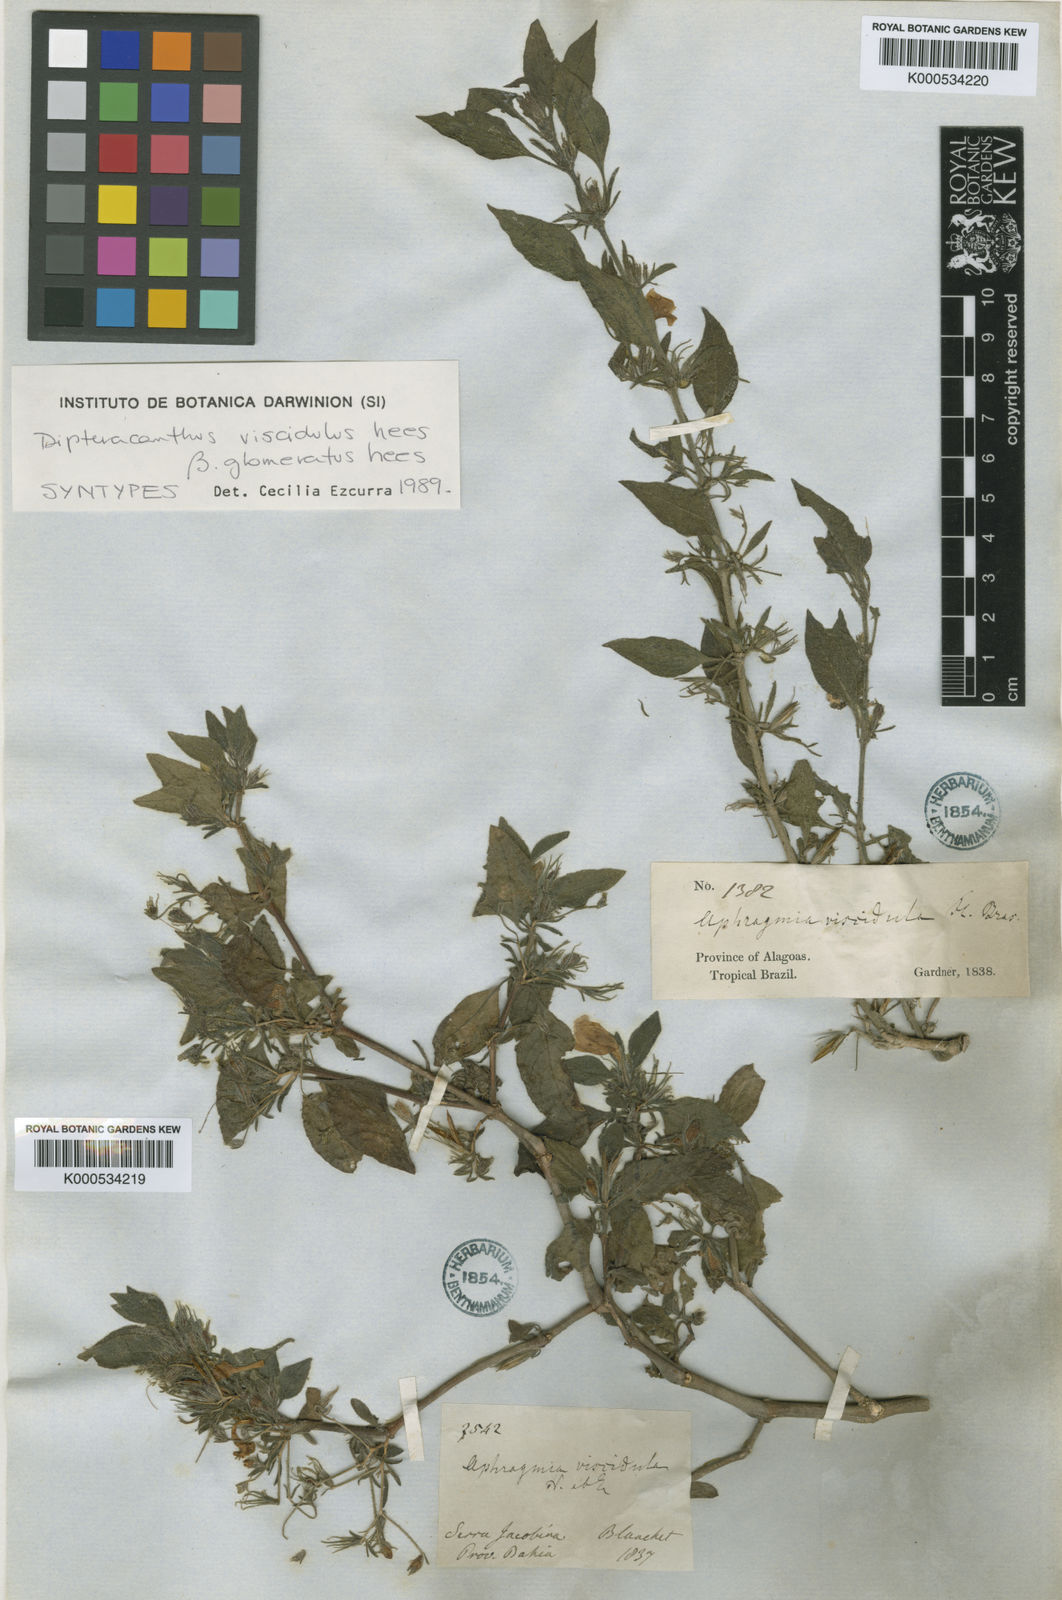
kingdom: Plantae
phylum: Tracheophyta
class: Magnoliopsida
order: Lamiales
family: Acanthaceae
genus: Ruellia
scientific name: Ruellia
